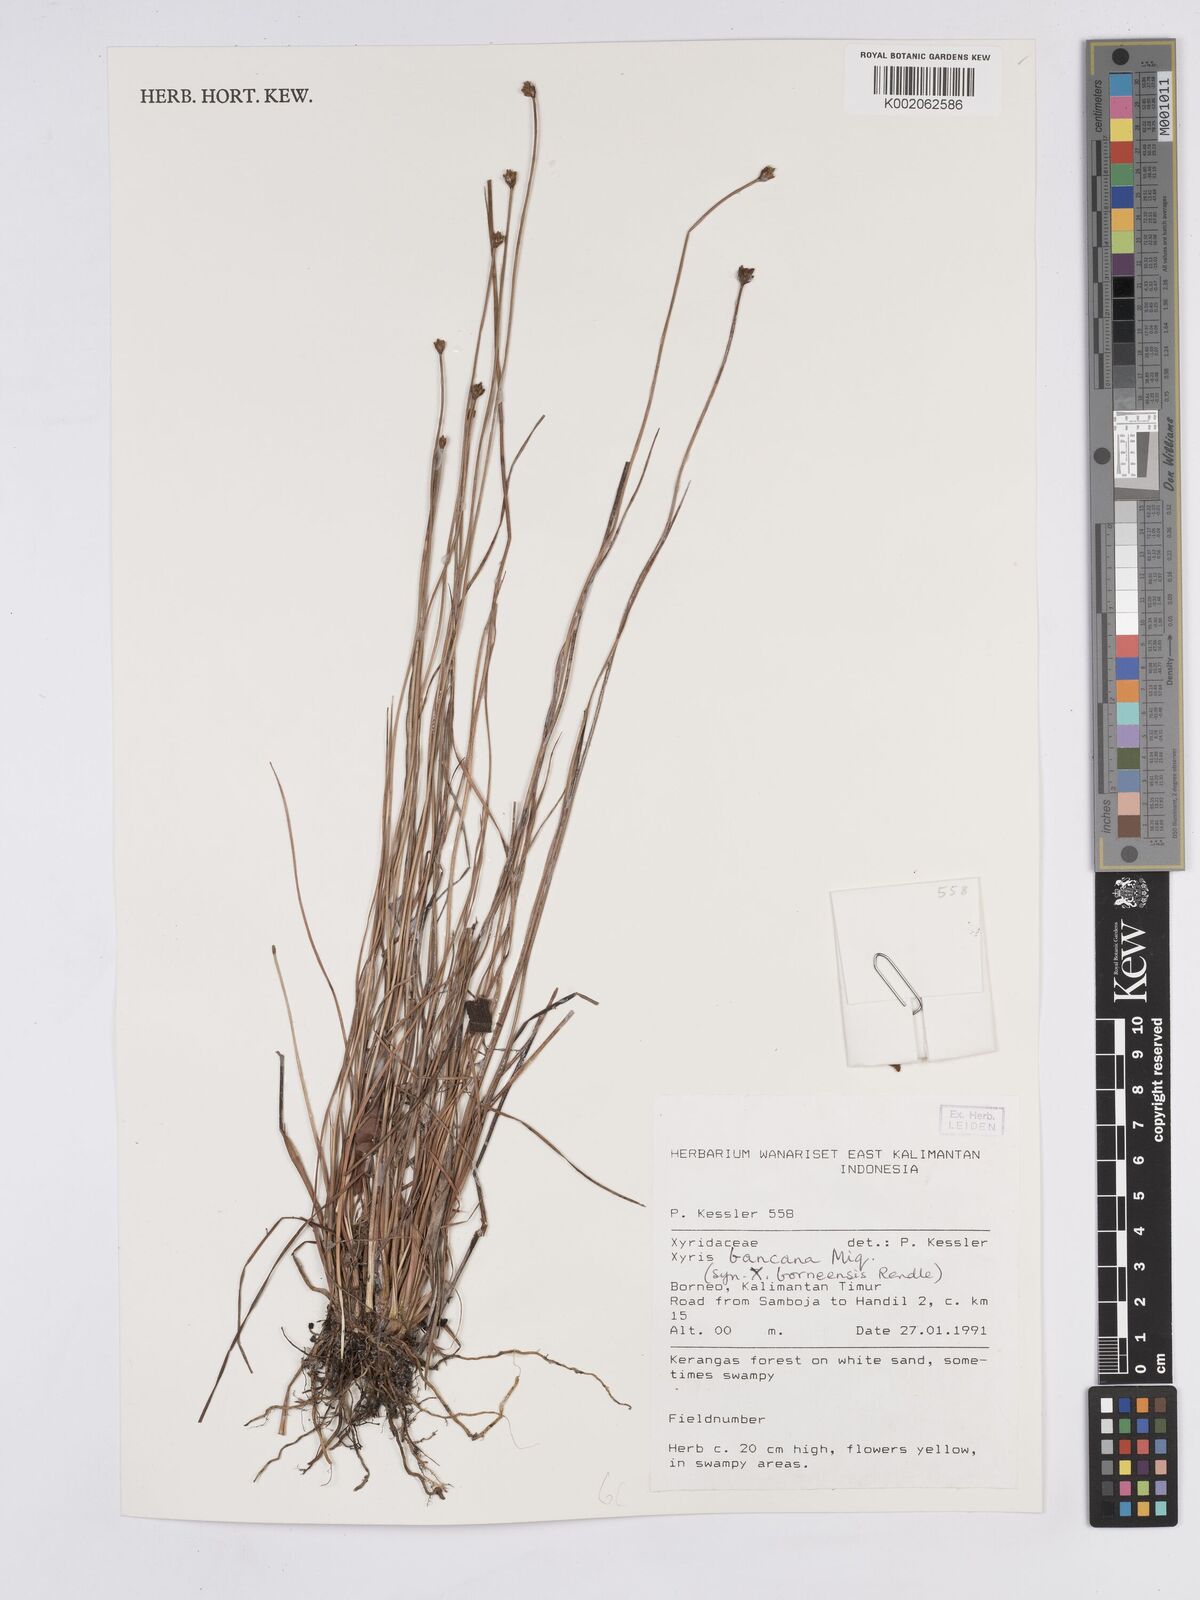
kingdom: Plantae
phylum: Tracheophyta
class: Liliopsida
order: Poales
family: Xyridaceae
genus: Xyris
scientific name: Xyris bancana
